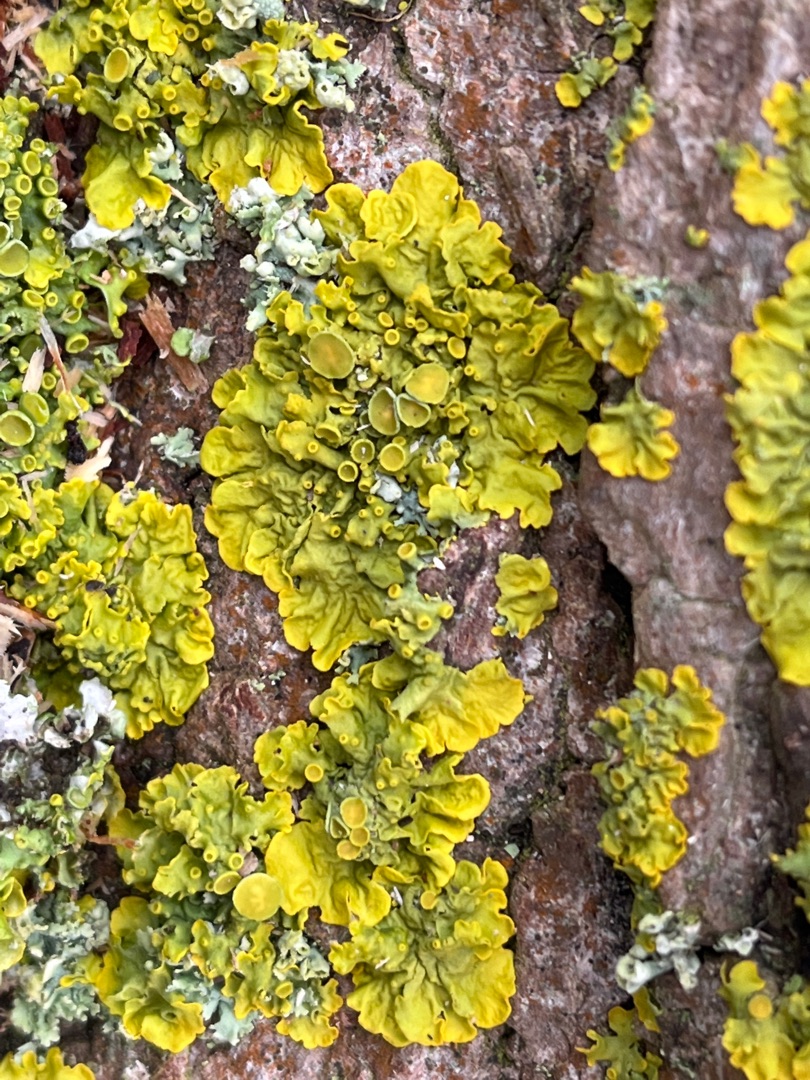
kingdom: Fungi
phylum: Ascomycota
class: Lecanoromycetes
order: Teloschistales
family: Teloschistaceae
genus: Xanthoria
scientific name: Xanthoria parietina
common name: Almindelig væggelav
